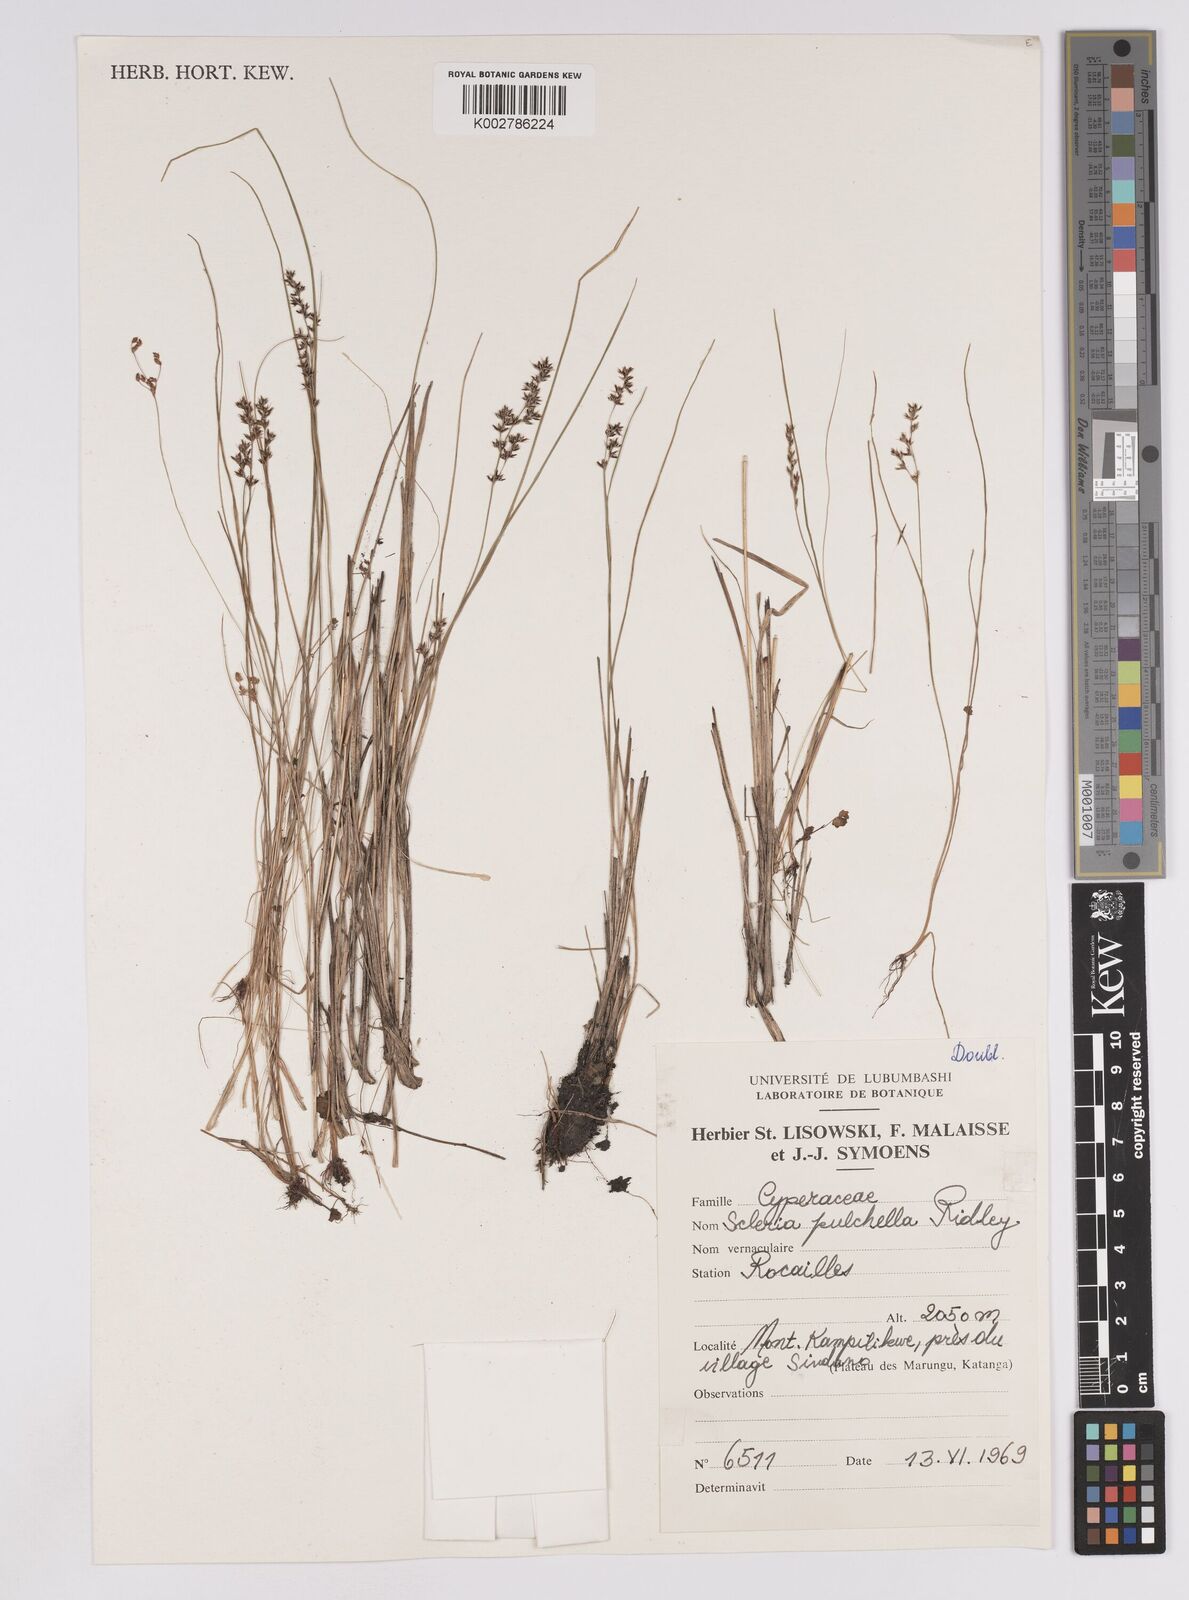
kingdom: Plantae
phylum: Tracheophyta
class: Liliopsida
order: Poales
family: Cyperaceae
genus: Scleria
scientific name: Scleria pulchella
